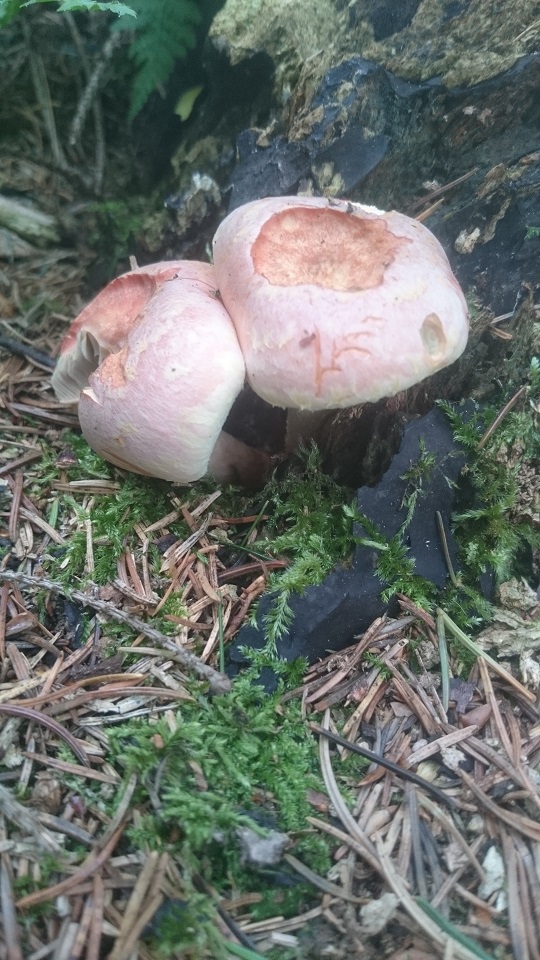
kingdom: Fungi
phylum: Basidiomycota
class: Agaricomycetes
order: Agaricales
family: Strophariaceae
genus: Hypholoma
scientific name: Hypholoma lateritium
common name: teglrød svovlhat
